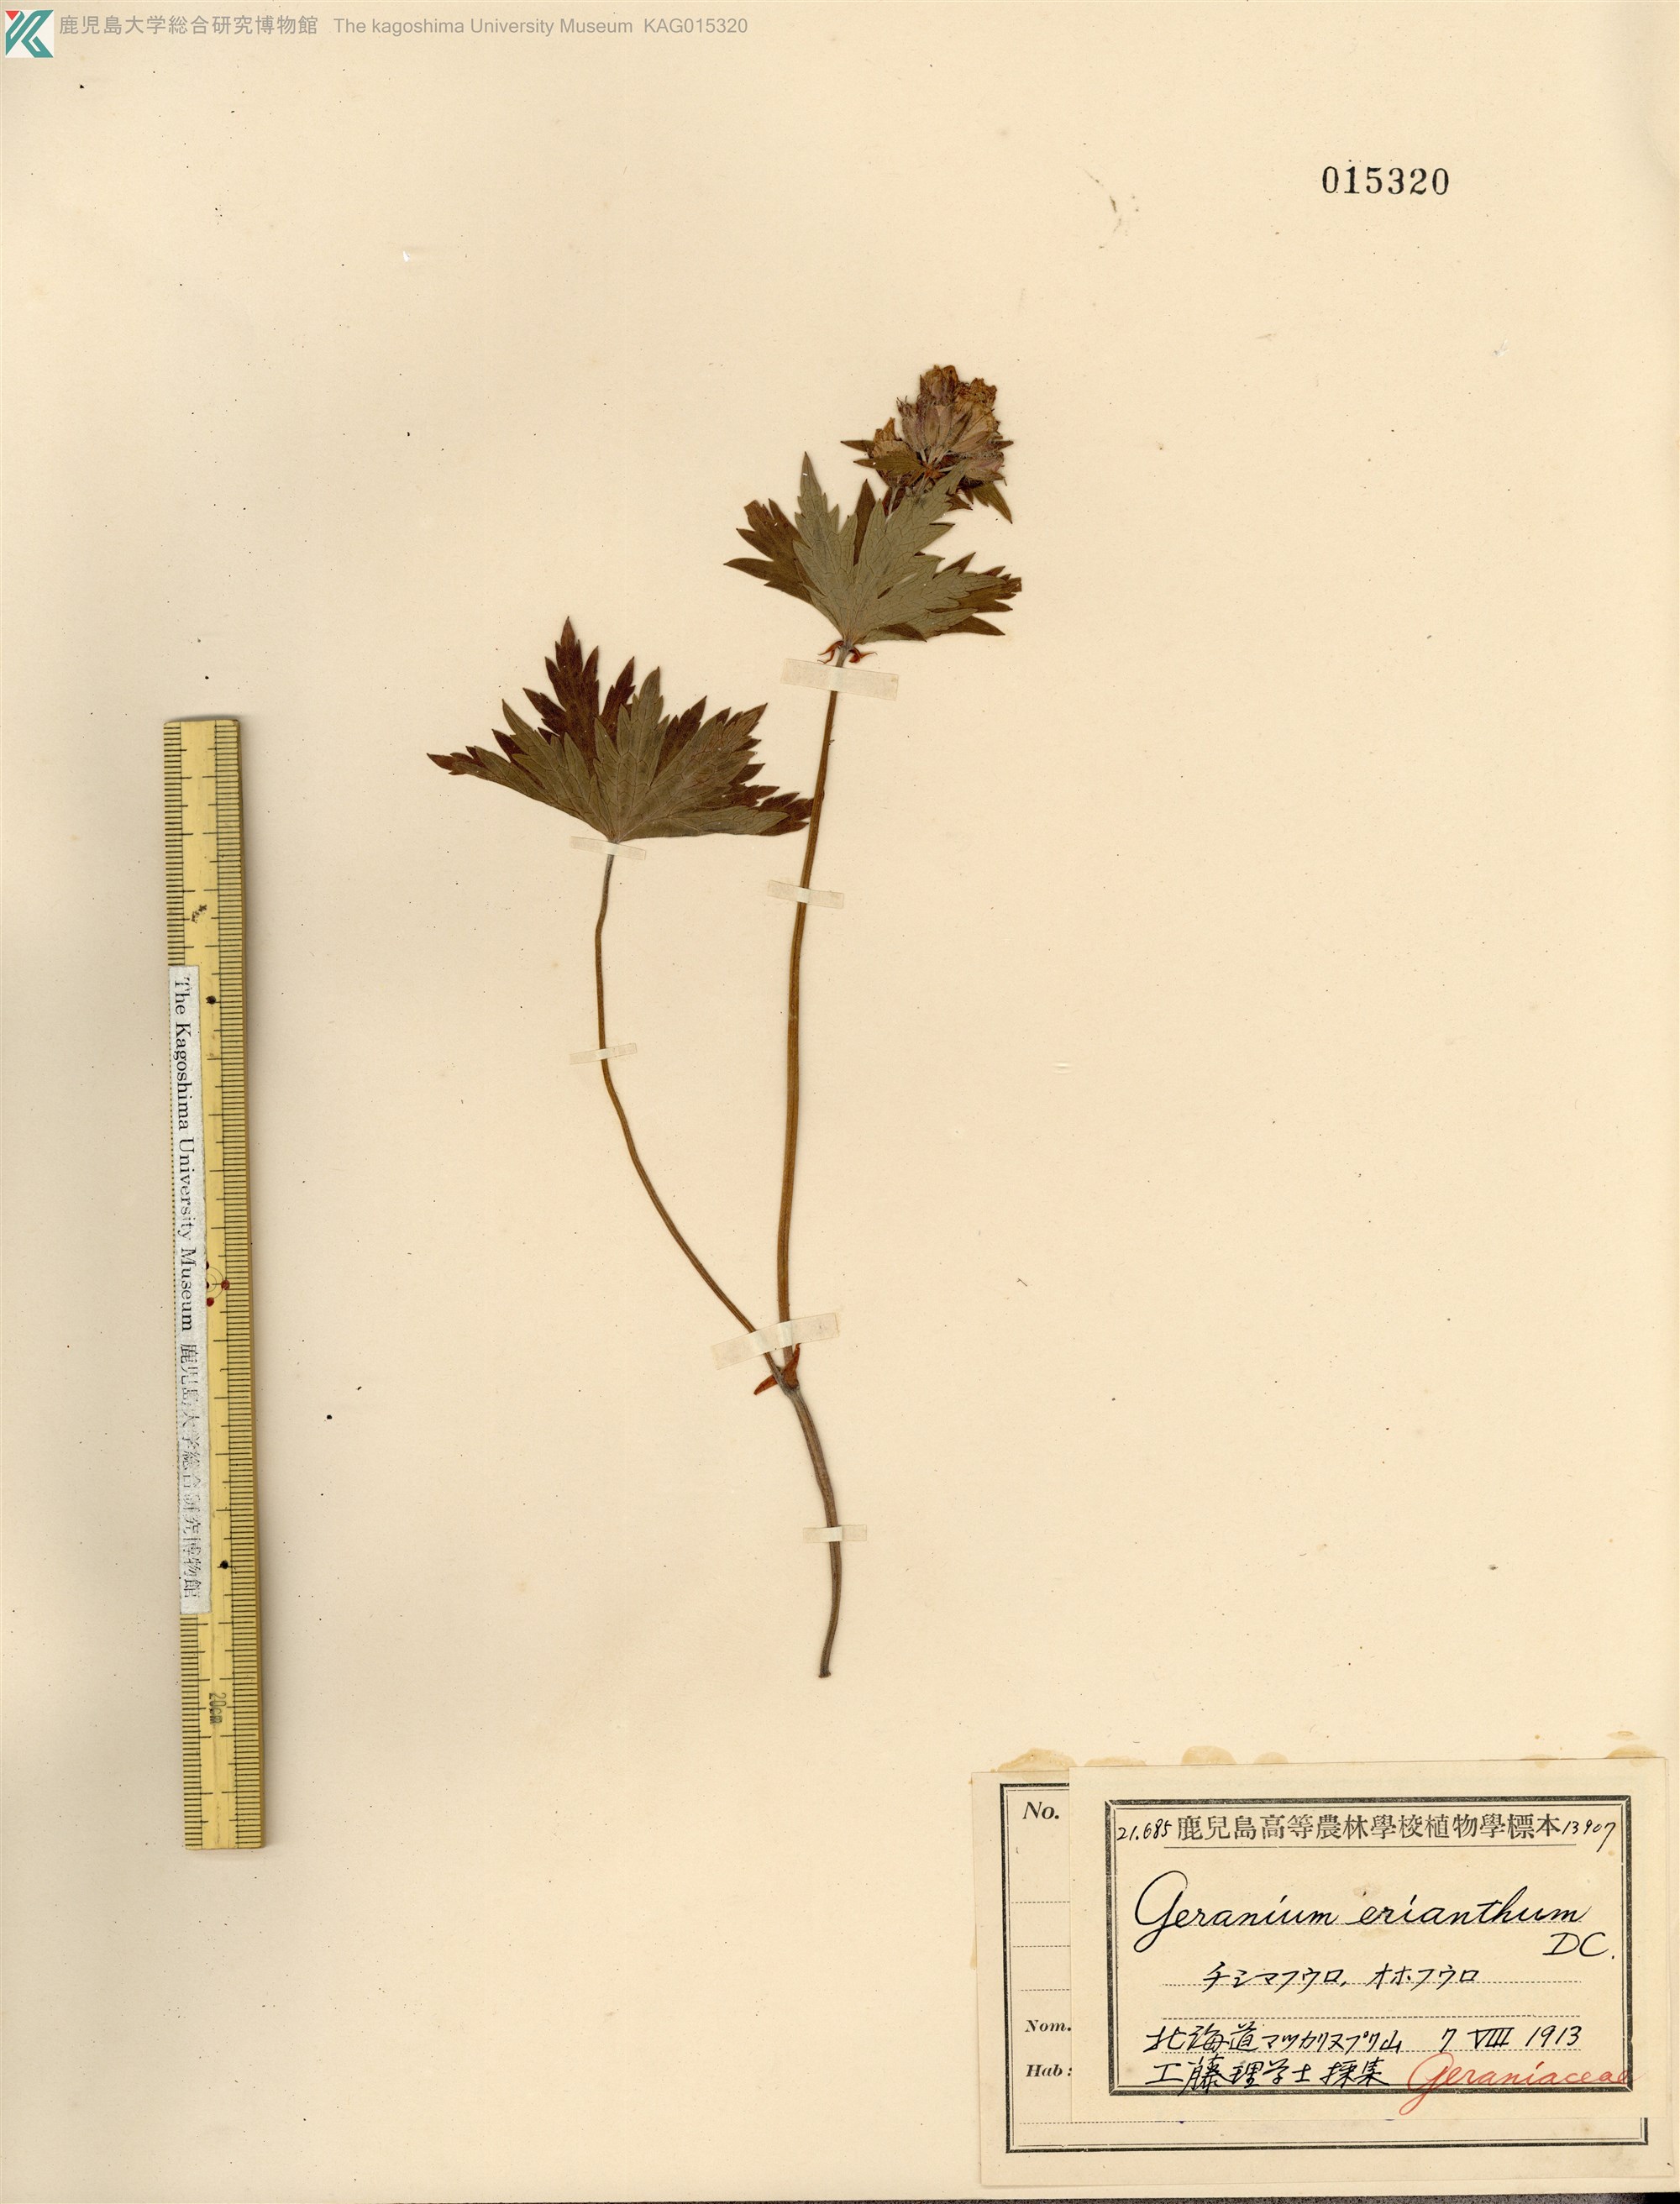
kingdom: Plantae
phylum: Tracheophyta
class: Magnoliopsida
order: Geraniales
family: Geraniaceae
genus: Geranium
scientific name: Geranium erianthum
